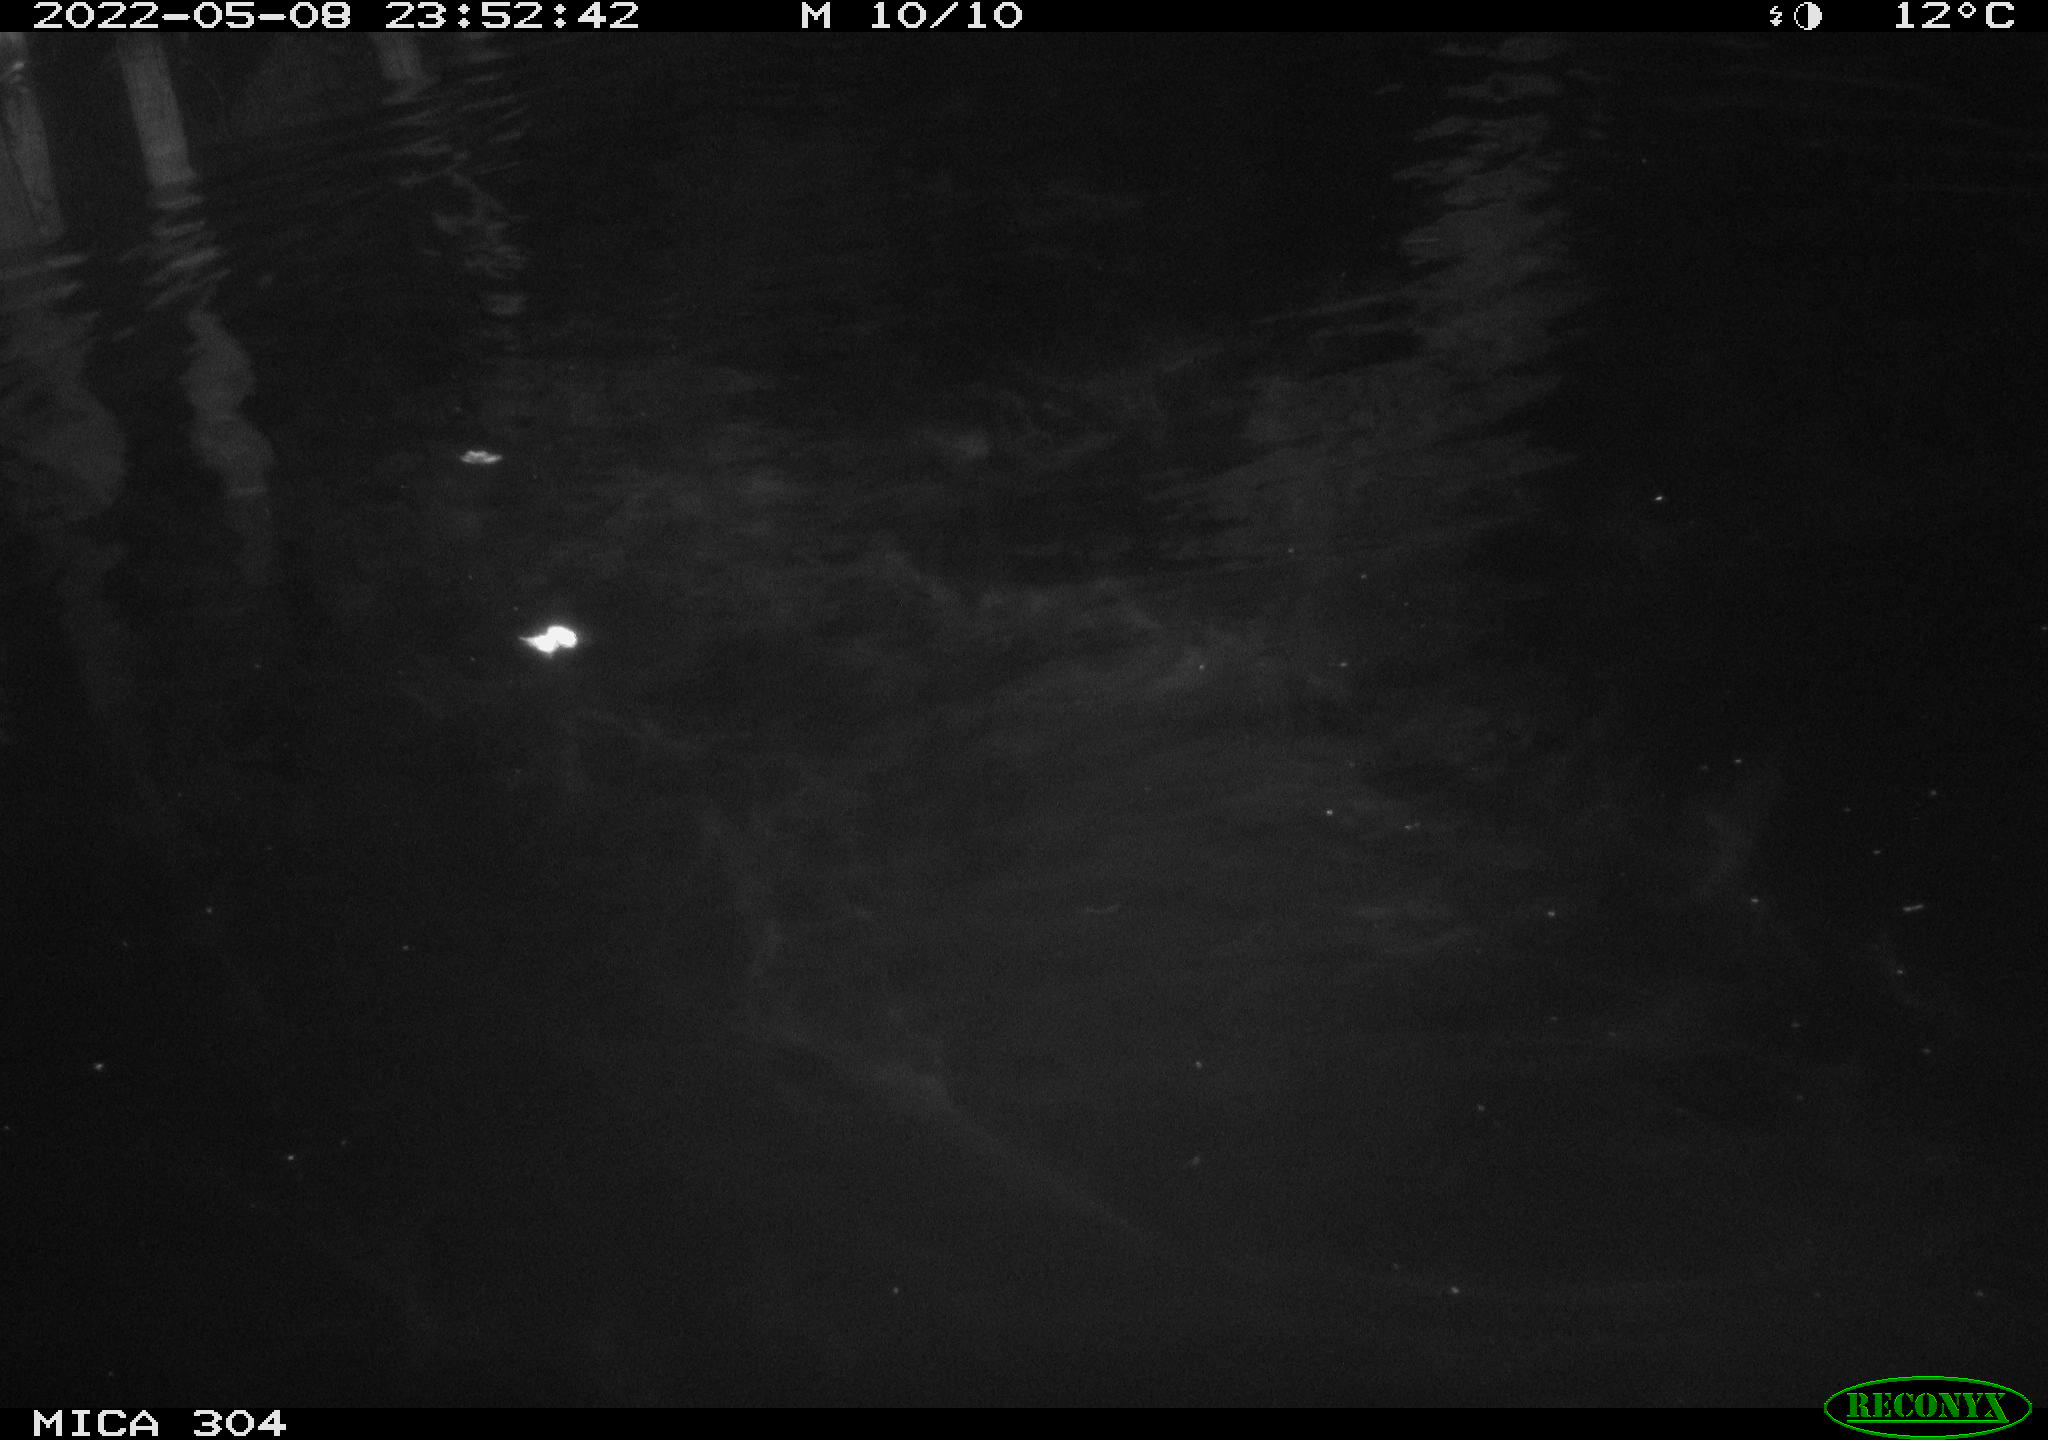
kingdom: Animalia
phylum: Chordata
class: Mammalia
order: Rodentia
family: Cricetidae
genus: Ondatra
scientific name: Ondatra zibethicus
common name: Muskrat
